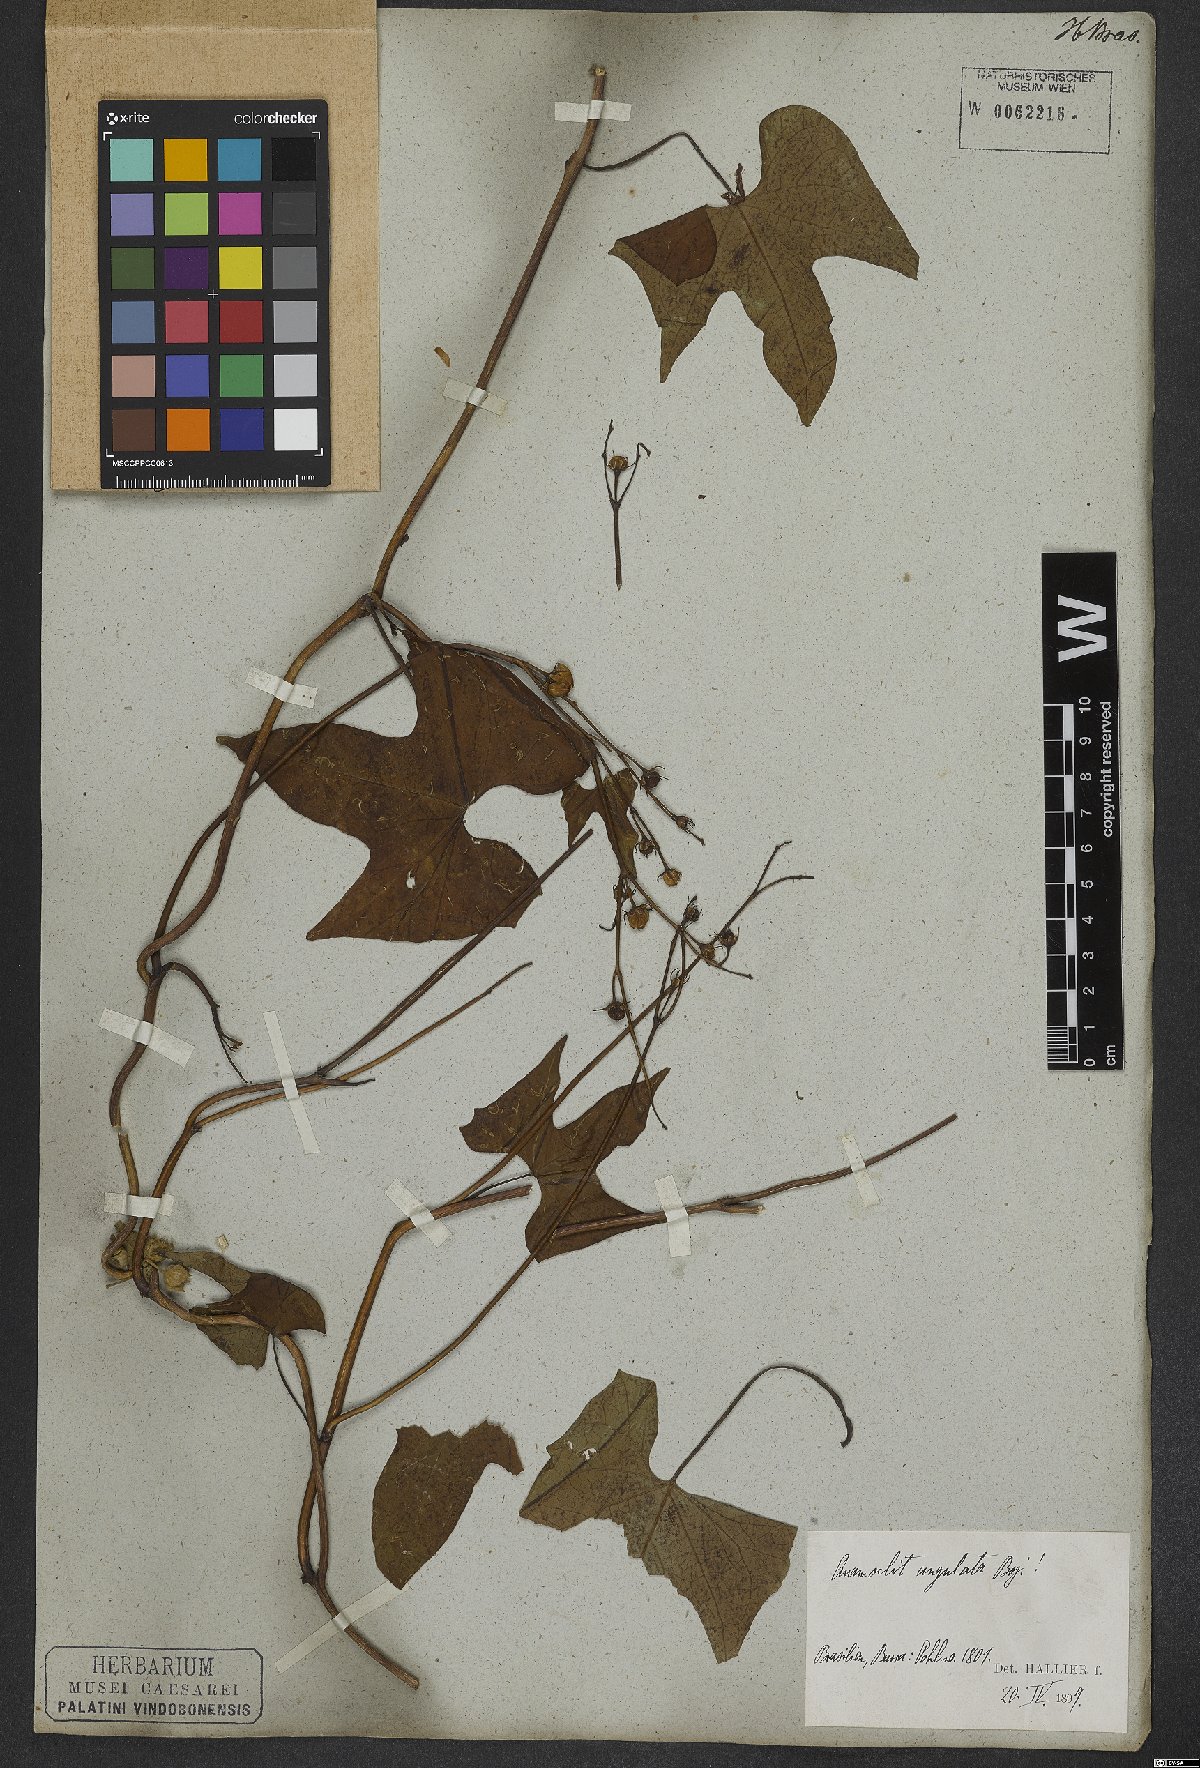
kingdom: Plantae
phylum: Tracheophyta
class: Magnoliopsida
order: Solanales
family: Convolvulaceae
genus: Ipomoea
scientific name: Ipomoea hederifolia
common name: Ivy-leaf morning-glory
